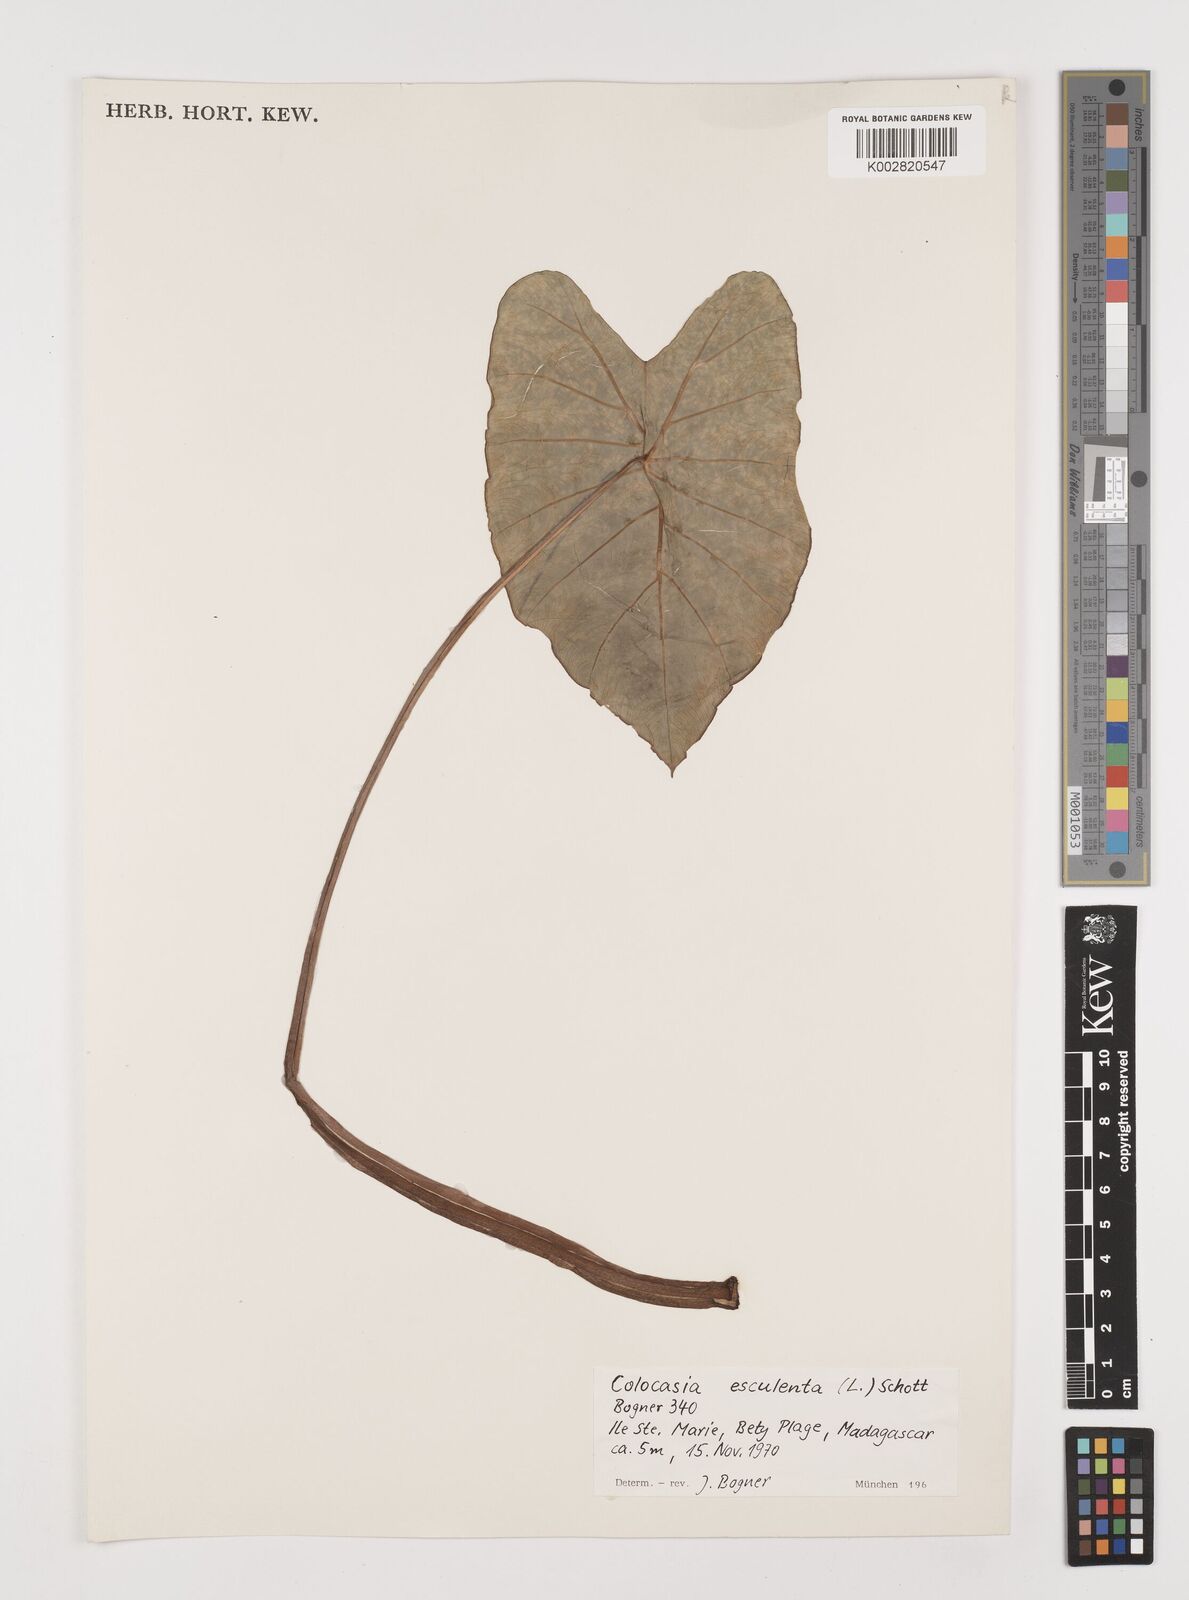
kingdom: Plantae
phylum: Tracheophyta
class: Liliopsida
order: Alismatales
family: Araceae
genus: Colocasia
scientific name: Colocasia esculenta
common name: Taro
